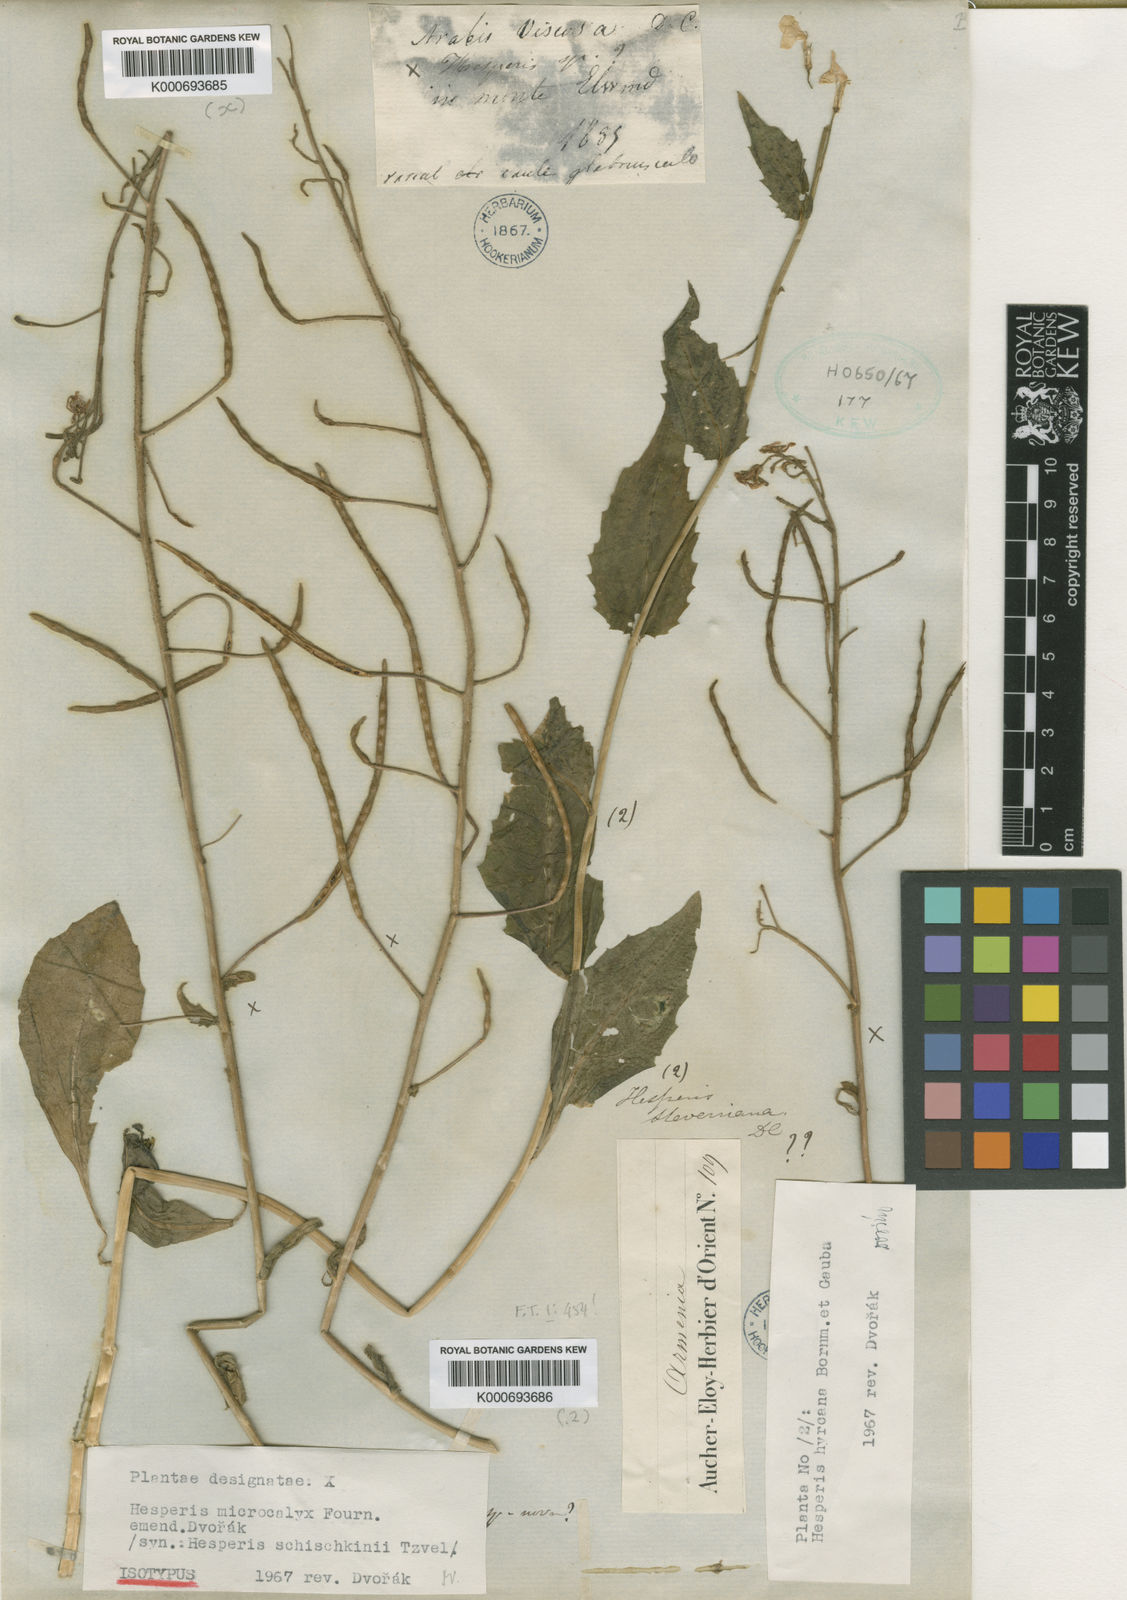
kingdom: Plantae
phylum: Tracheophyta
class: Magnoliopsida
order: Brassicales
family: Brassicaceae
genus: Hesperis
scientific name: Hesperis microcalyx
